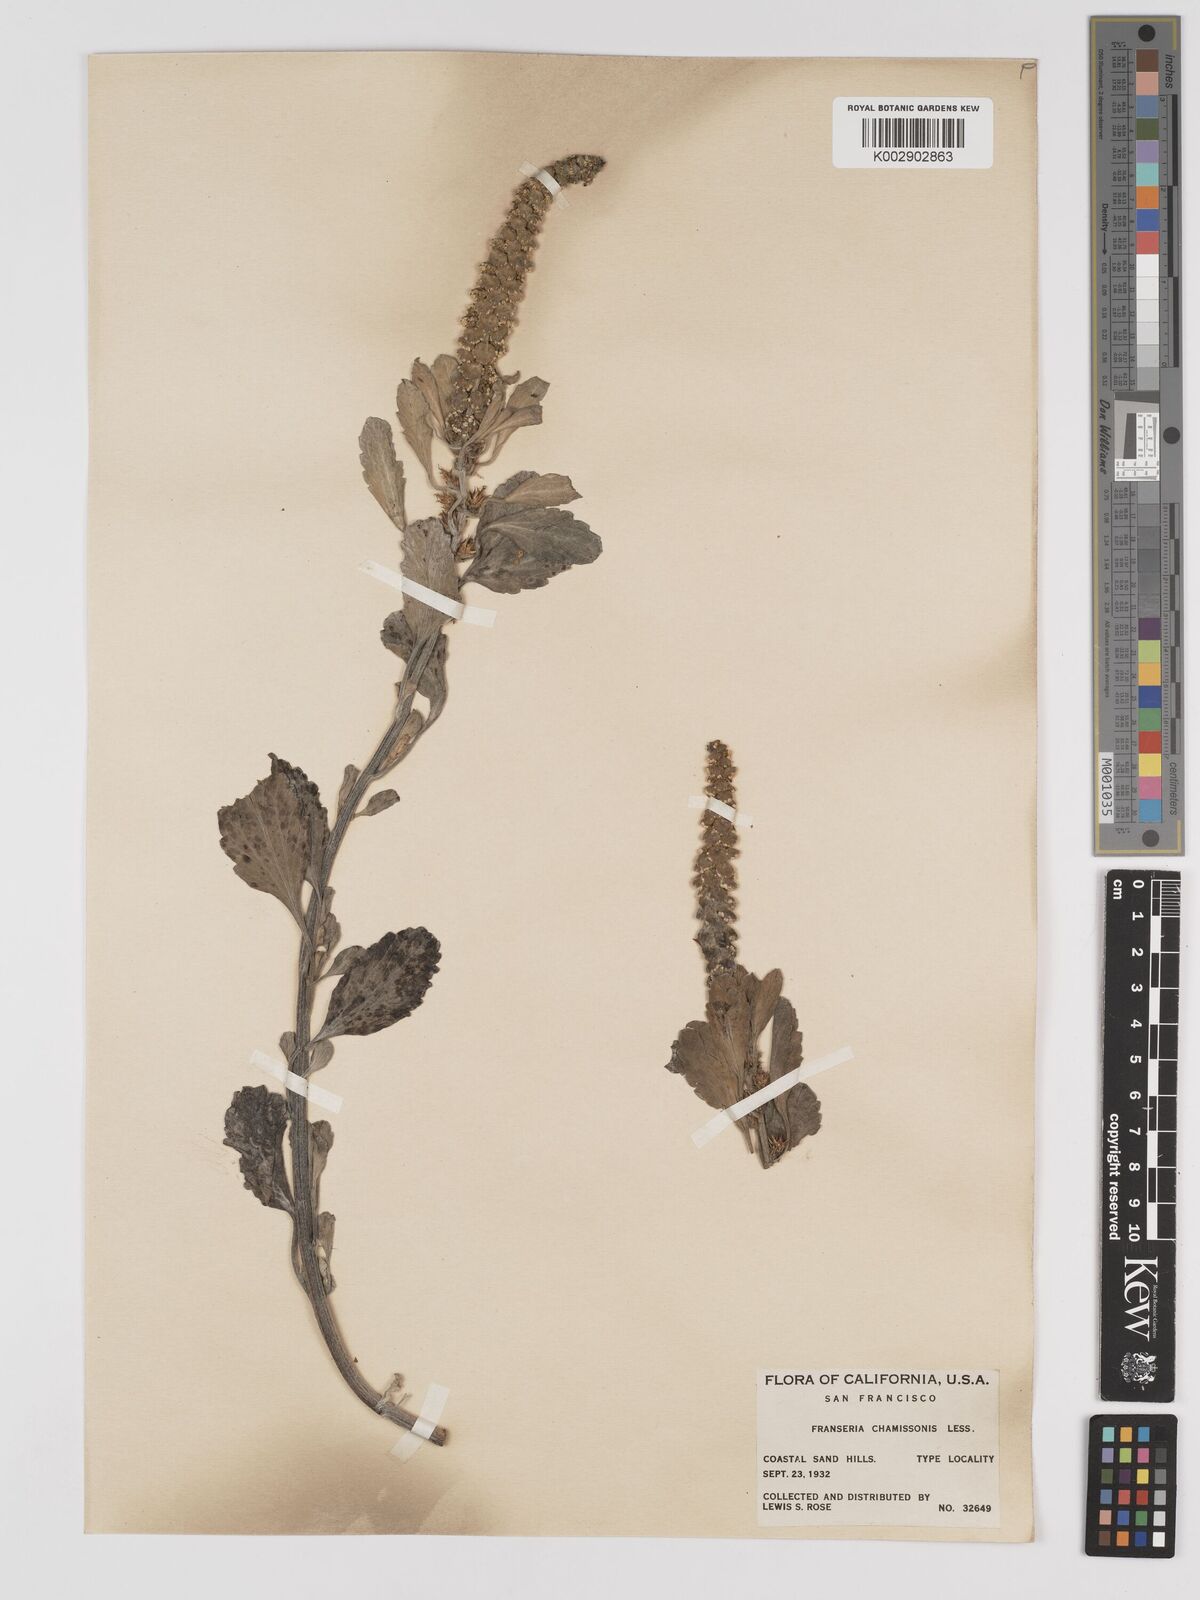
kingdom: Plantae
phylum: Tracheophyta
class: Magnoliopsida
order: Asterales
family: Asteraceae
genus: Ambrosia
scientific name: Ambrosia chamissonis
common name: Beachbur
